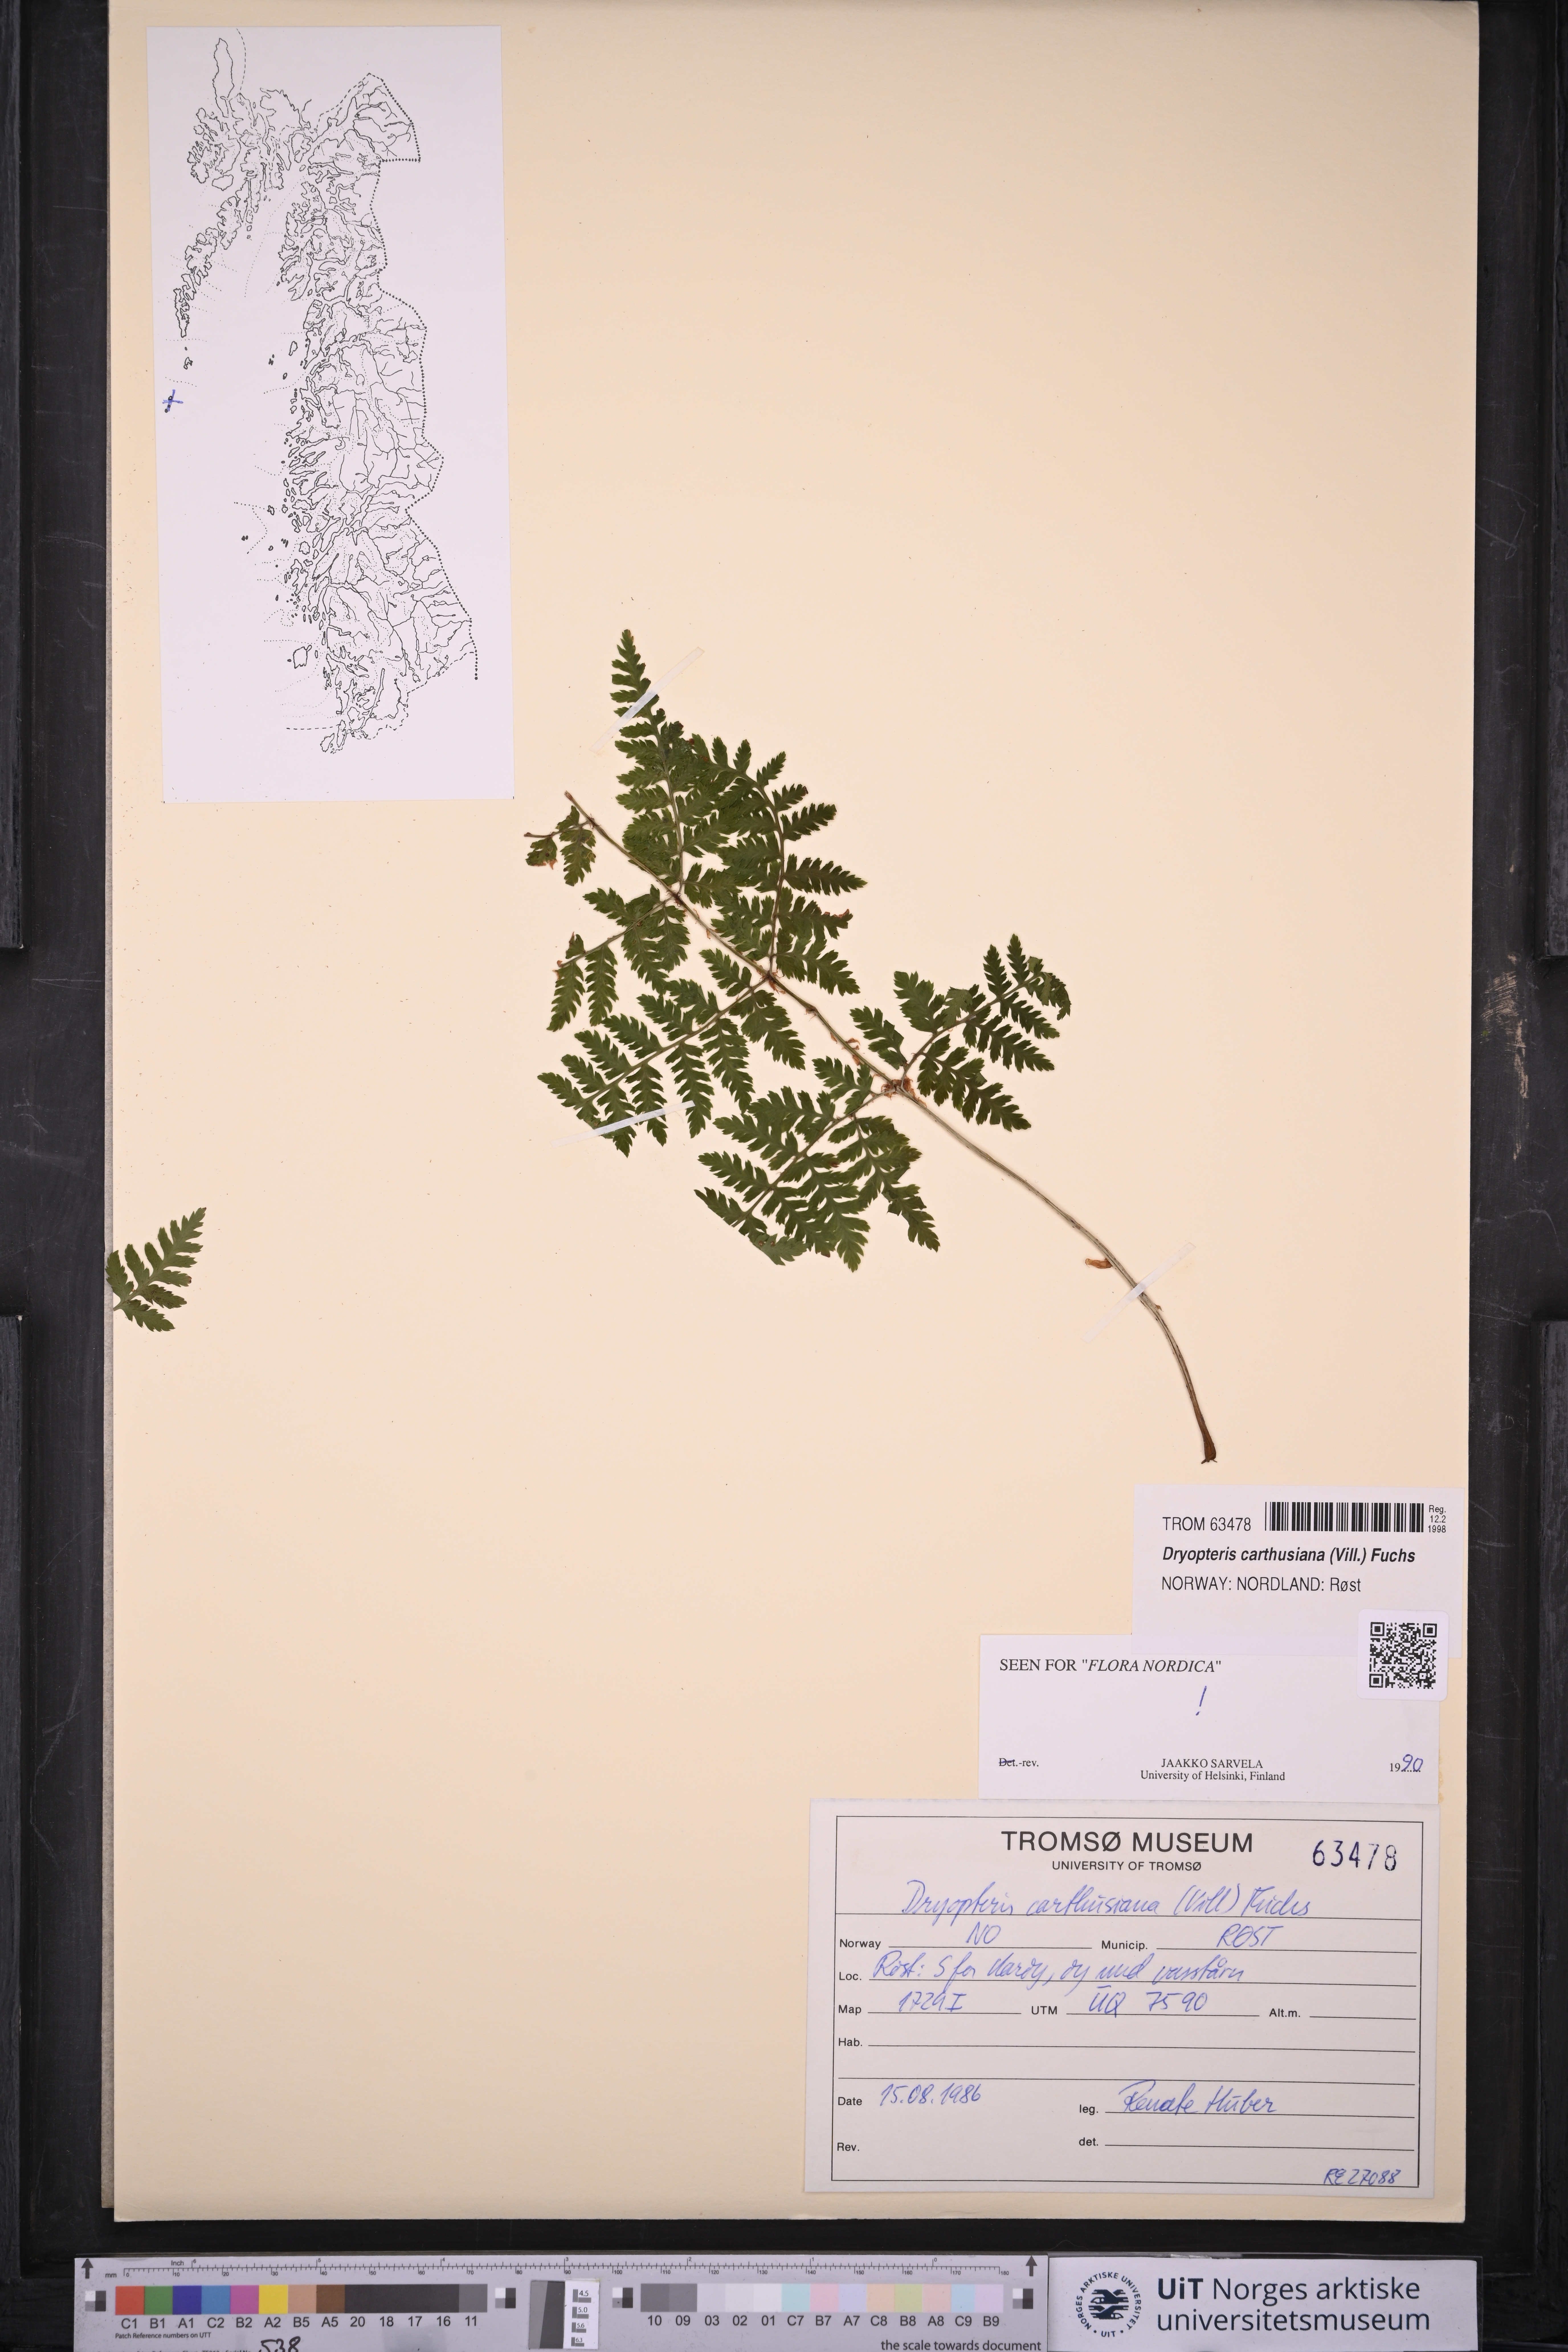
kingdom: Plantae
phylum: Tracheophyta
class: Polypodiopsida
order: Polypodiales
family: Dryopteridaceae
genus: Dryopteris
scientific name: Dryopteris carthusiana
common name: Narrow buckler-fern
